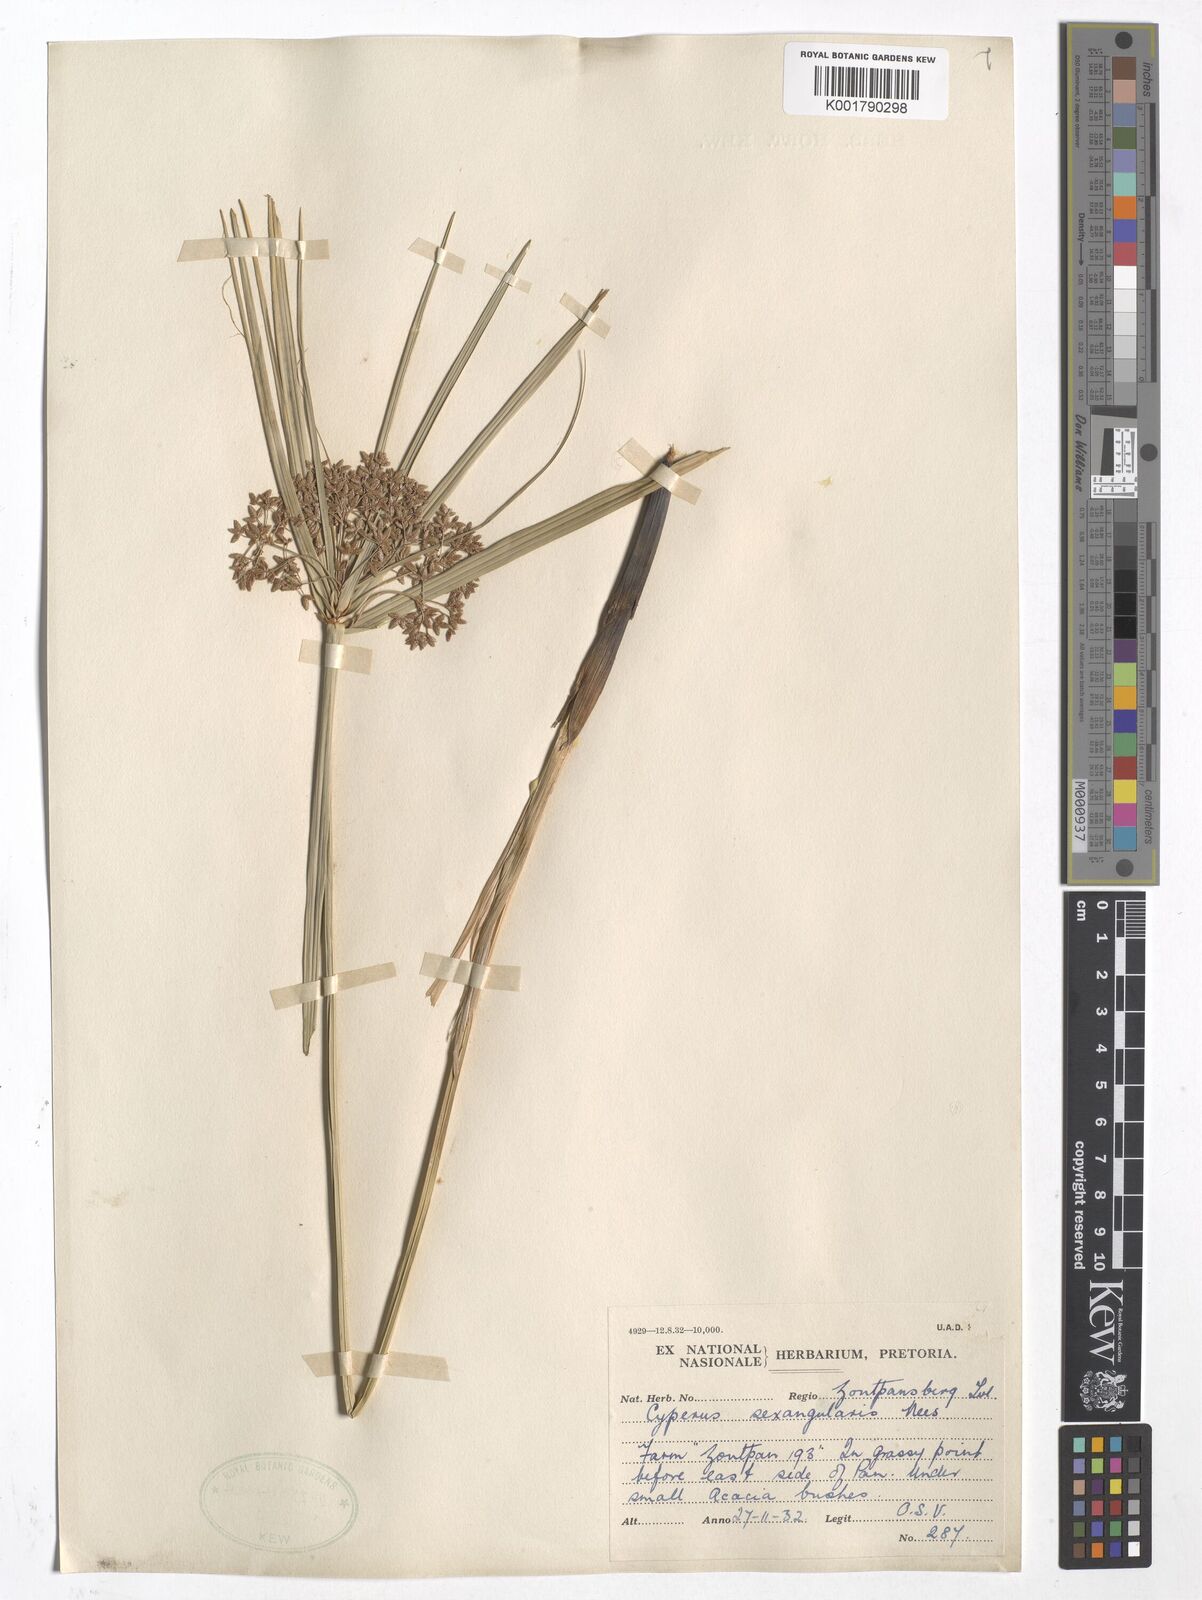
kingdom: Plantae
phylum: Tracheophyta
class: Liliopsida
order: Poales
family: Cyperaceae
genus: Cyperus
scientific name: Cyperus sexangularis
